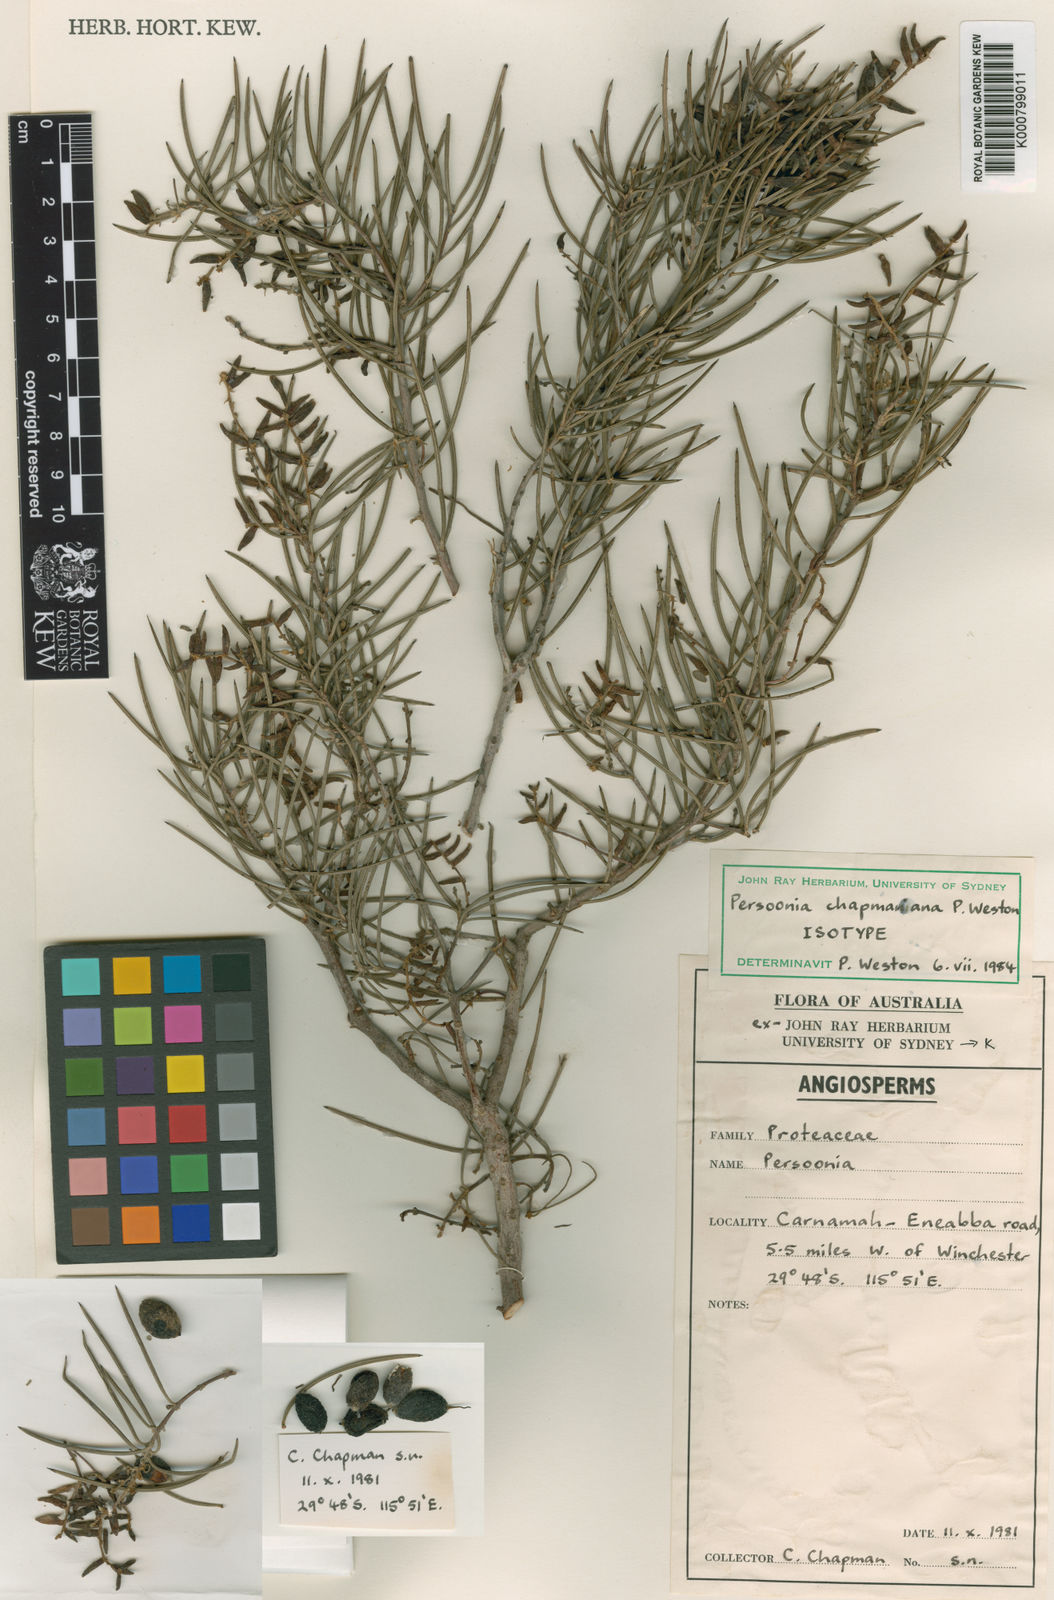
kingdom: Plantae
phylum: Tracheophyta
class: Magnoliopsida
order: Proteales
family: Proteaceae
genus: Persoonia
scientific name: Persoonia chapmaniana
